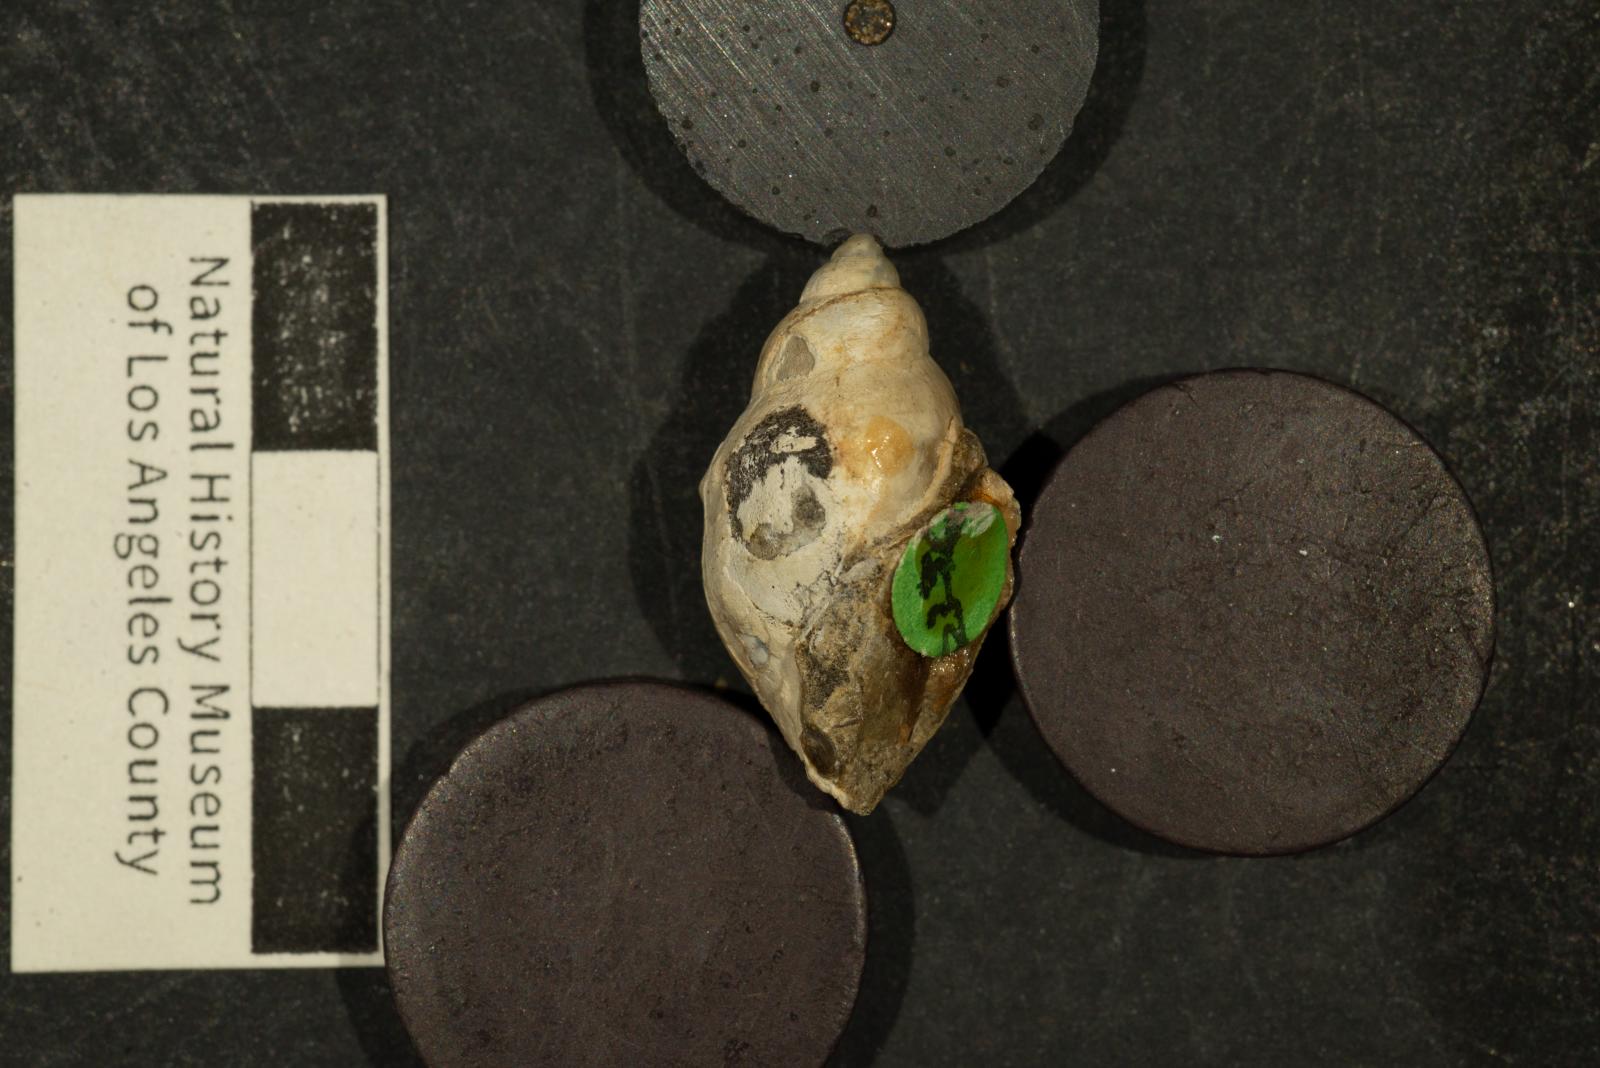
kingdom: Animalia
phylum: Mollusca
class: Gastropoda
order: Littorinimorpha
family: Aporrhaidae
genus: Lispodesthes
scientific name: Lispodesthes Pugnellus rotundus
